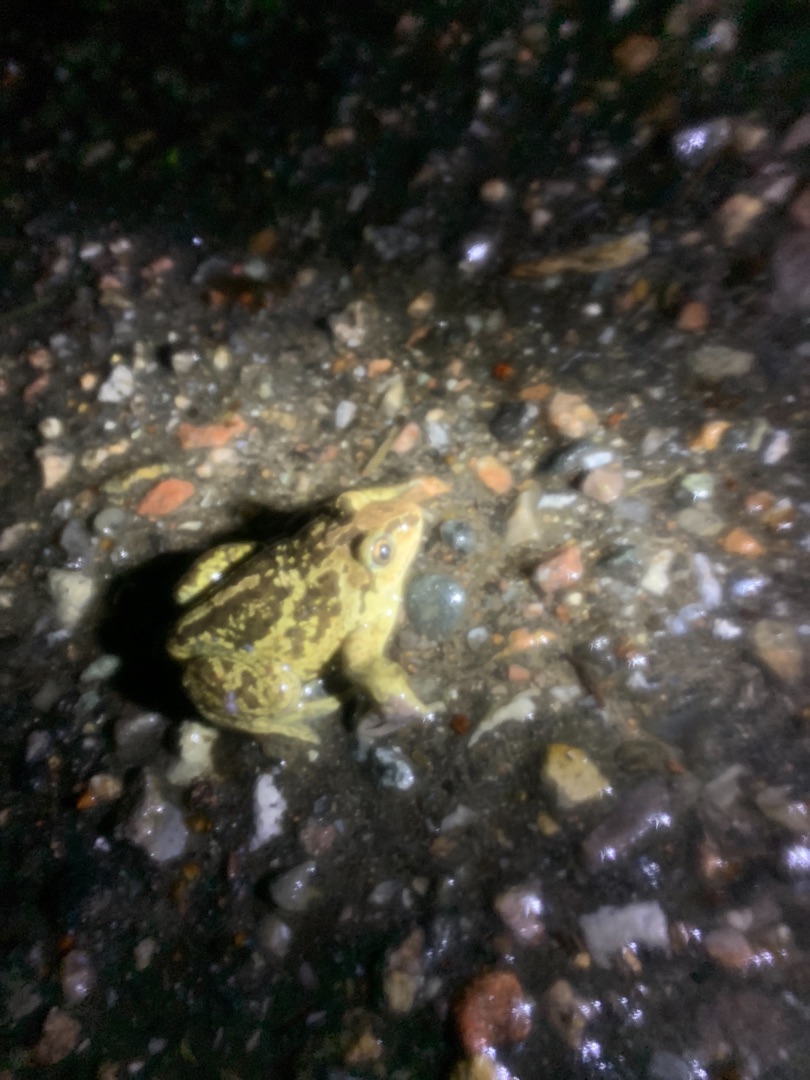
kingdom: Animalia
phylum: Chordata
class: Amphibia
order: Anura
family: Pelobatidae
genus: Pelobates
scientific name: Pelobates fuscus
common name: Løgfrø
